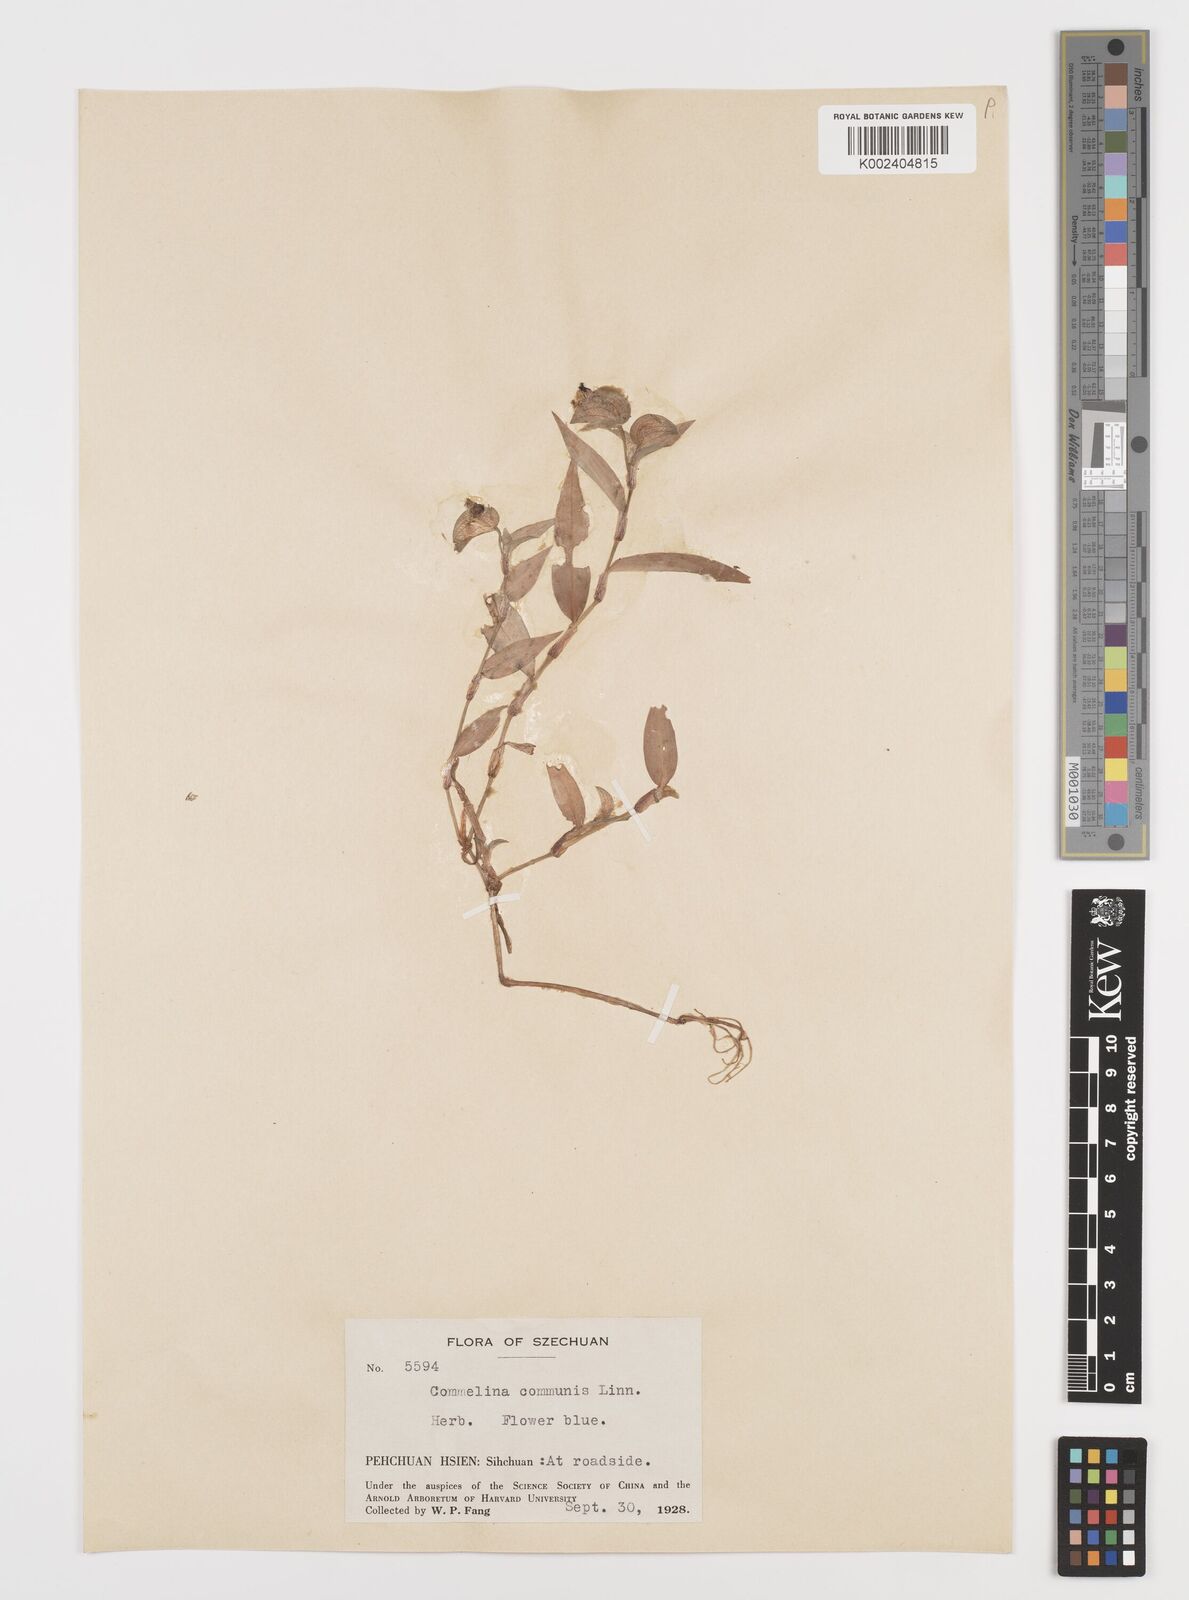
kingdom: Plantae
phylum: Tracheophyta
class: Liliopsida
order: Commelinales
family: Commelinaceae
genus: Commelina
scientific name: Commelina communis
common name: Asiatic dayflower
